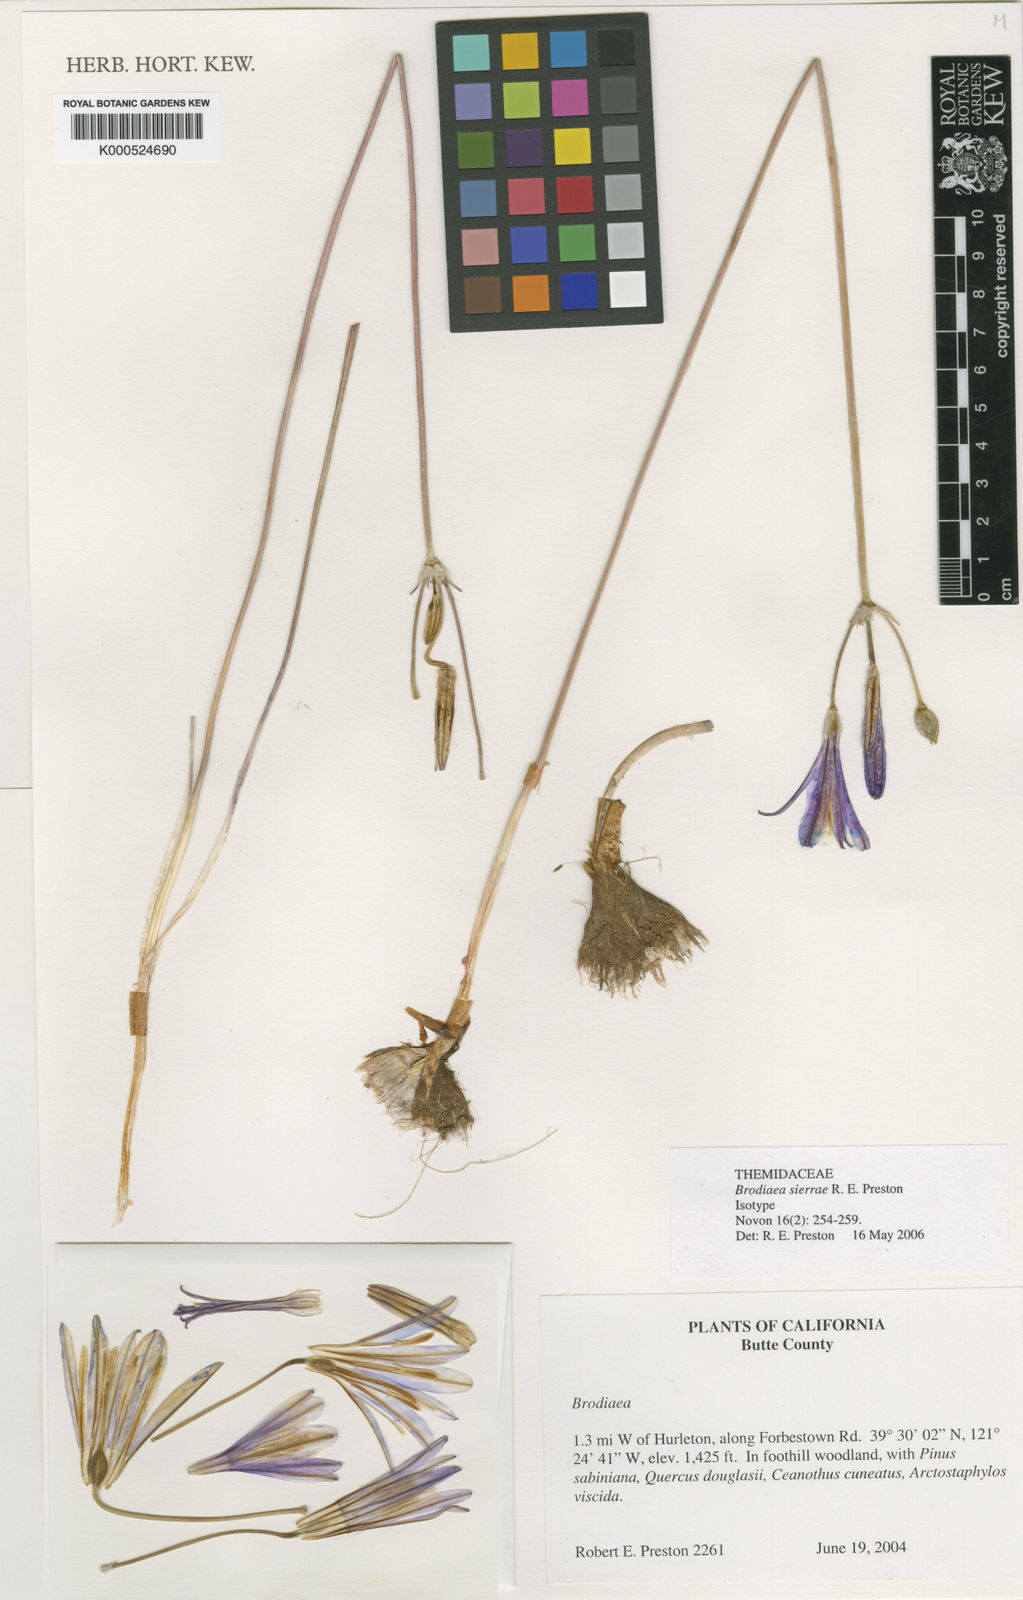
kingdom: Plantae
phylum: Tracheophyta
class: Liliopsida
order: Asparagales
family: Asparagaceae
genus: Brodiaea
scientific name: Brodiaea sierrae
